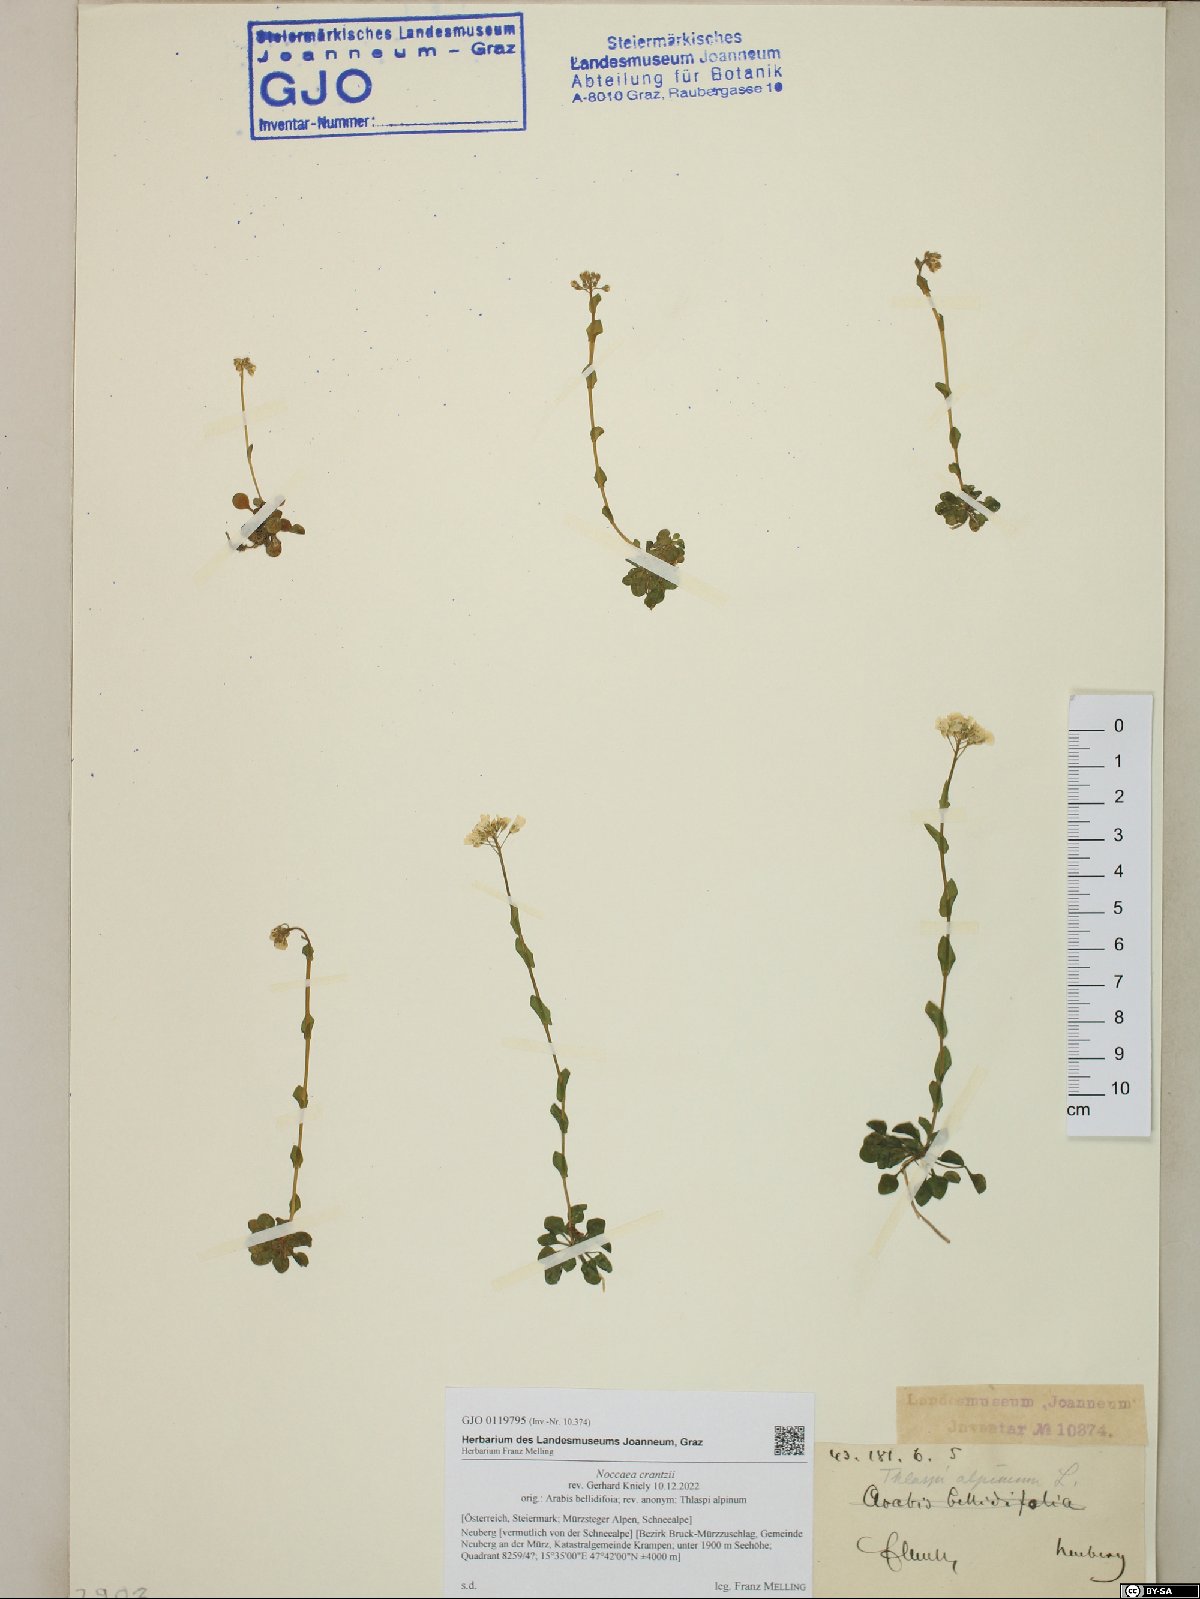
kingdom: Plantae
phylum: Tracheophyta
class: Magnoliopsida
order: Brassicales
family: Brassicaceae
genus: Noccaea
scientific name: Noccaea alpestris
